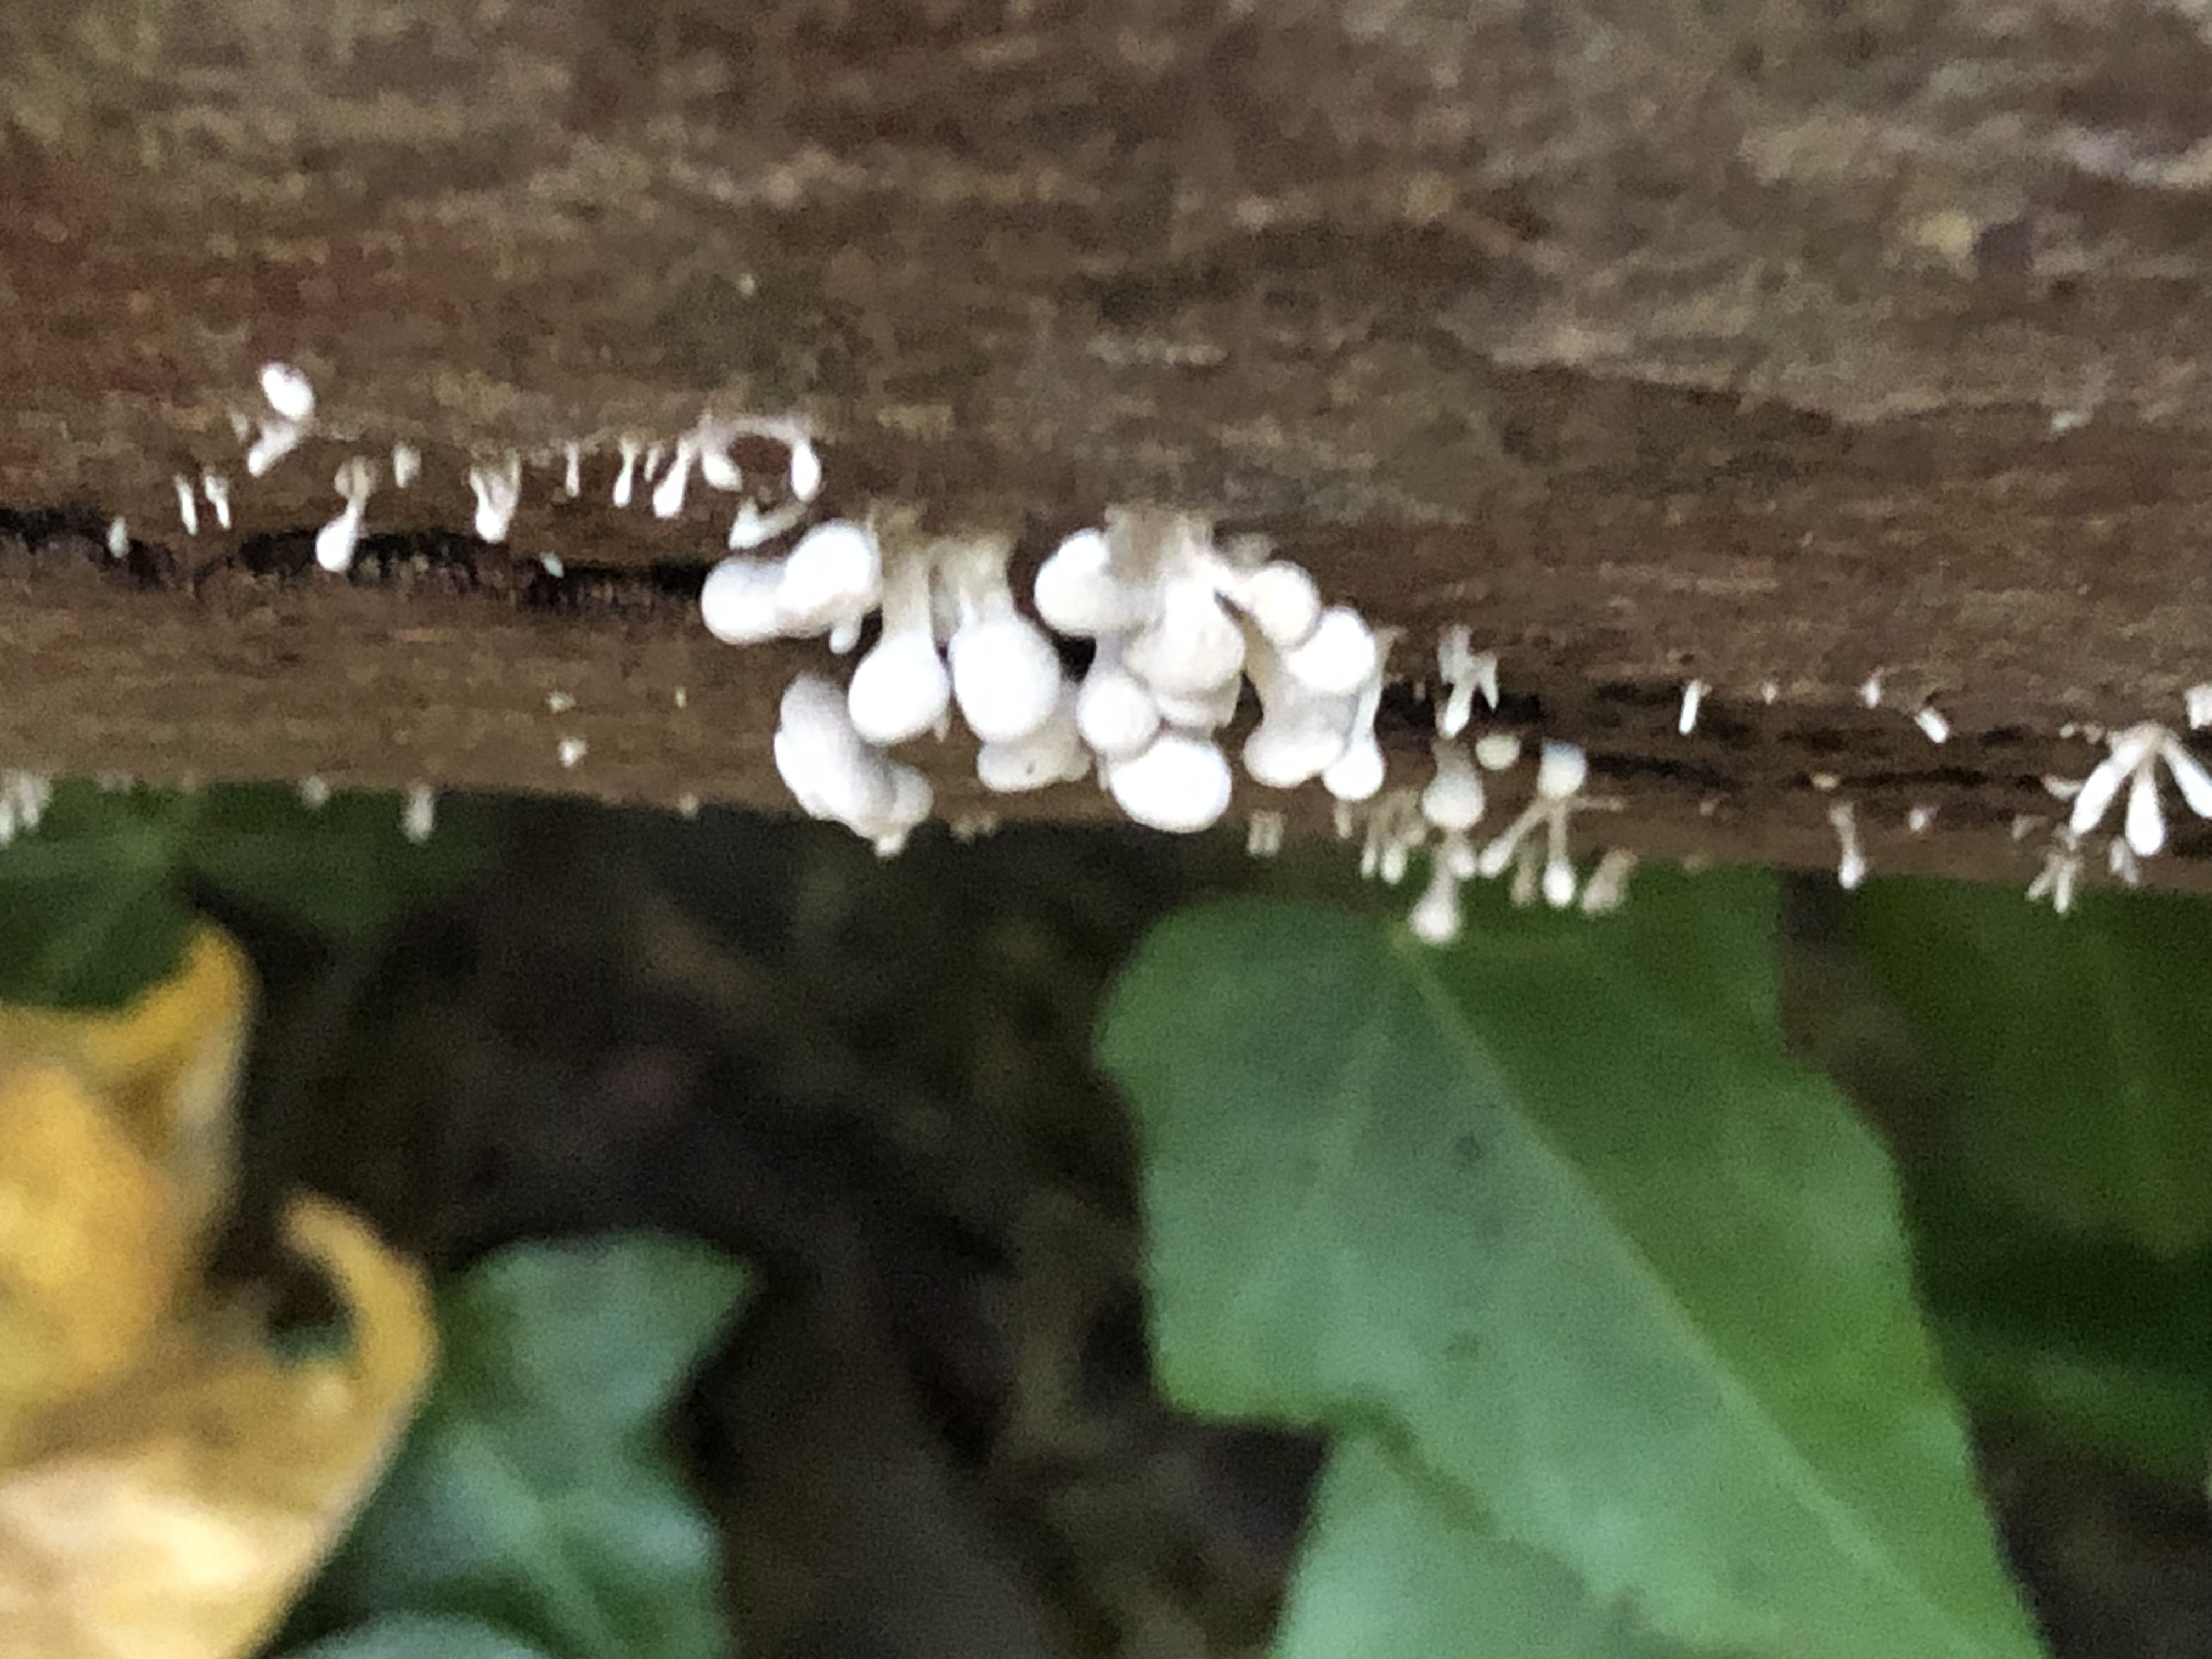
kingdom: Fungi
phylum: Basidiomycota
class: Atractiellomycetes
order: Atractiellales
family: Phleogenaceae
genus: Phleogena
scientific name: Phleogena faginea
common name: pudderkølle
